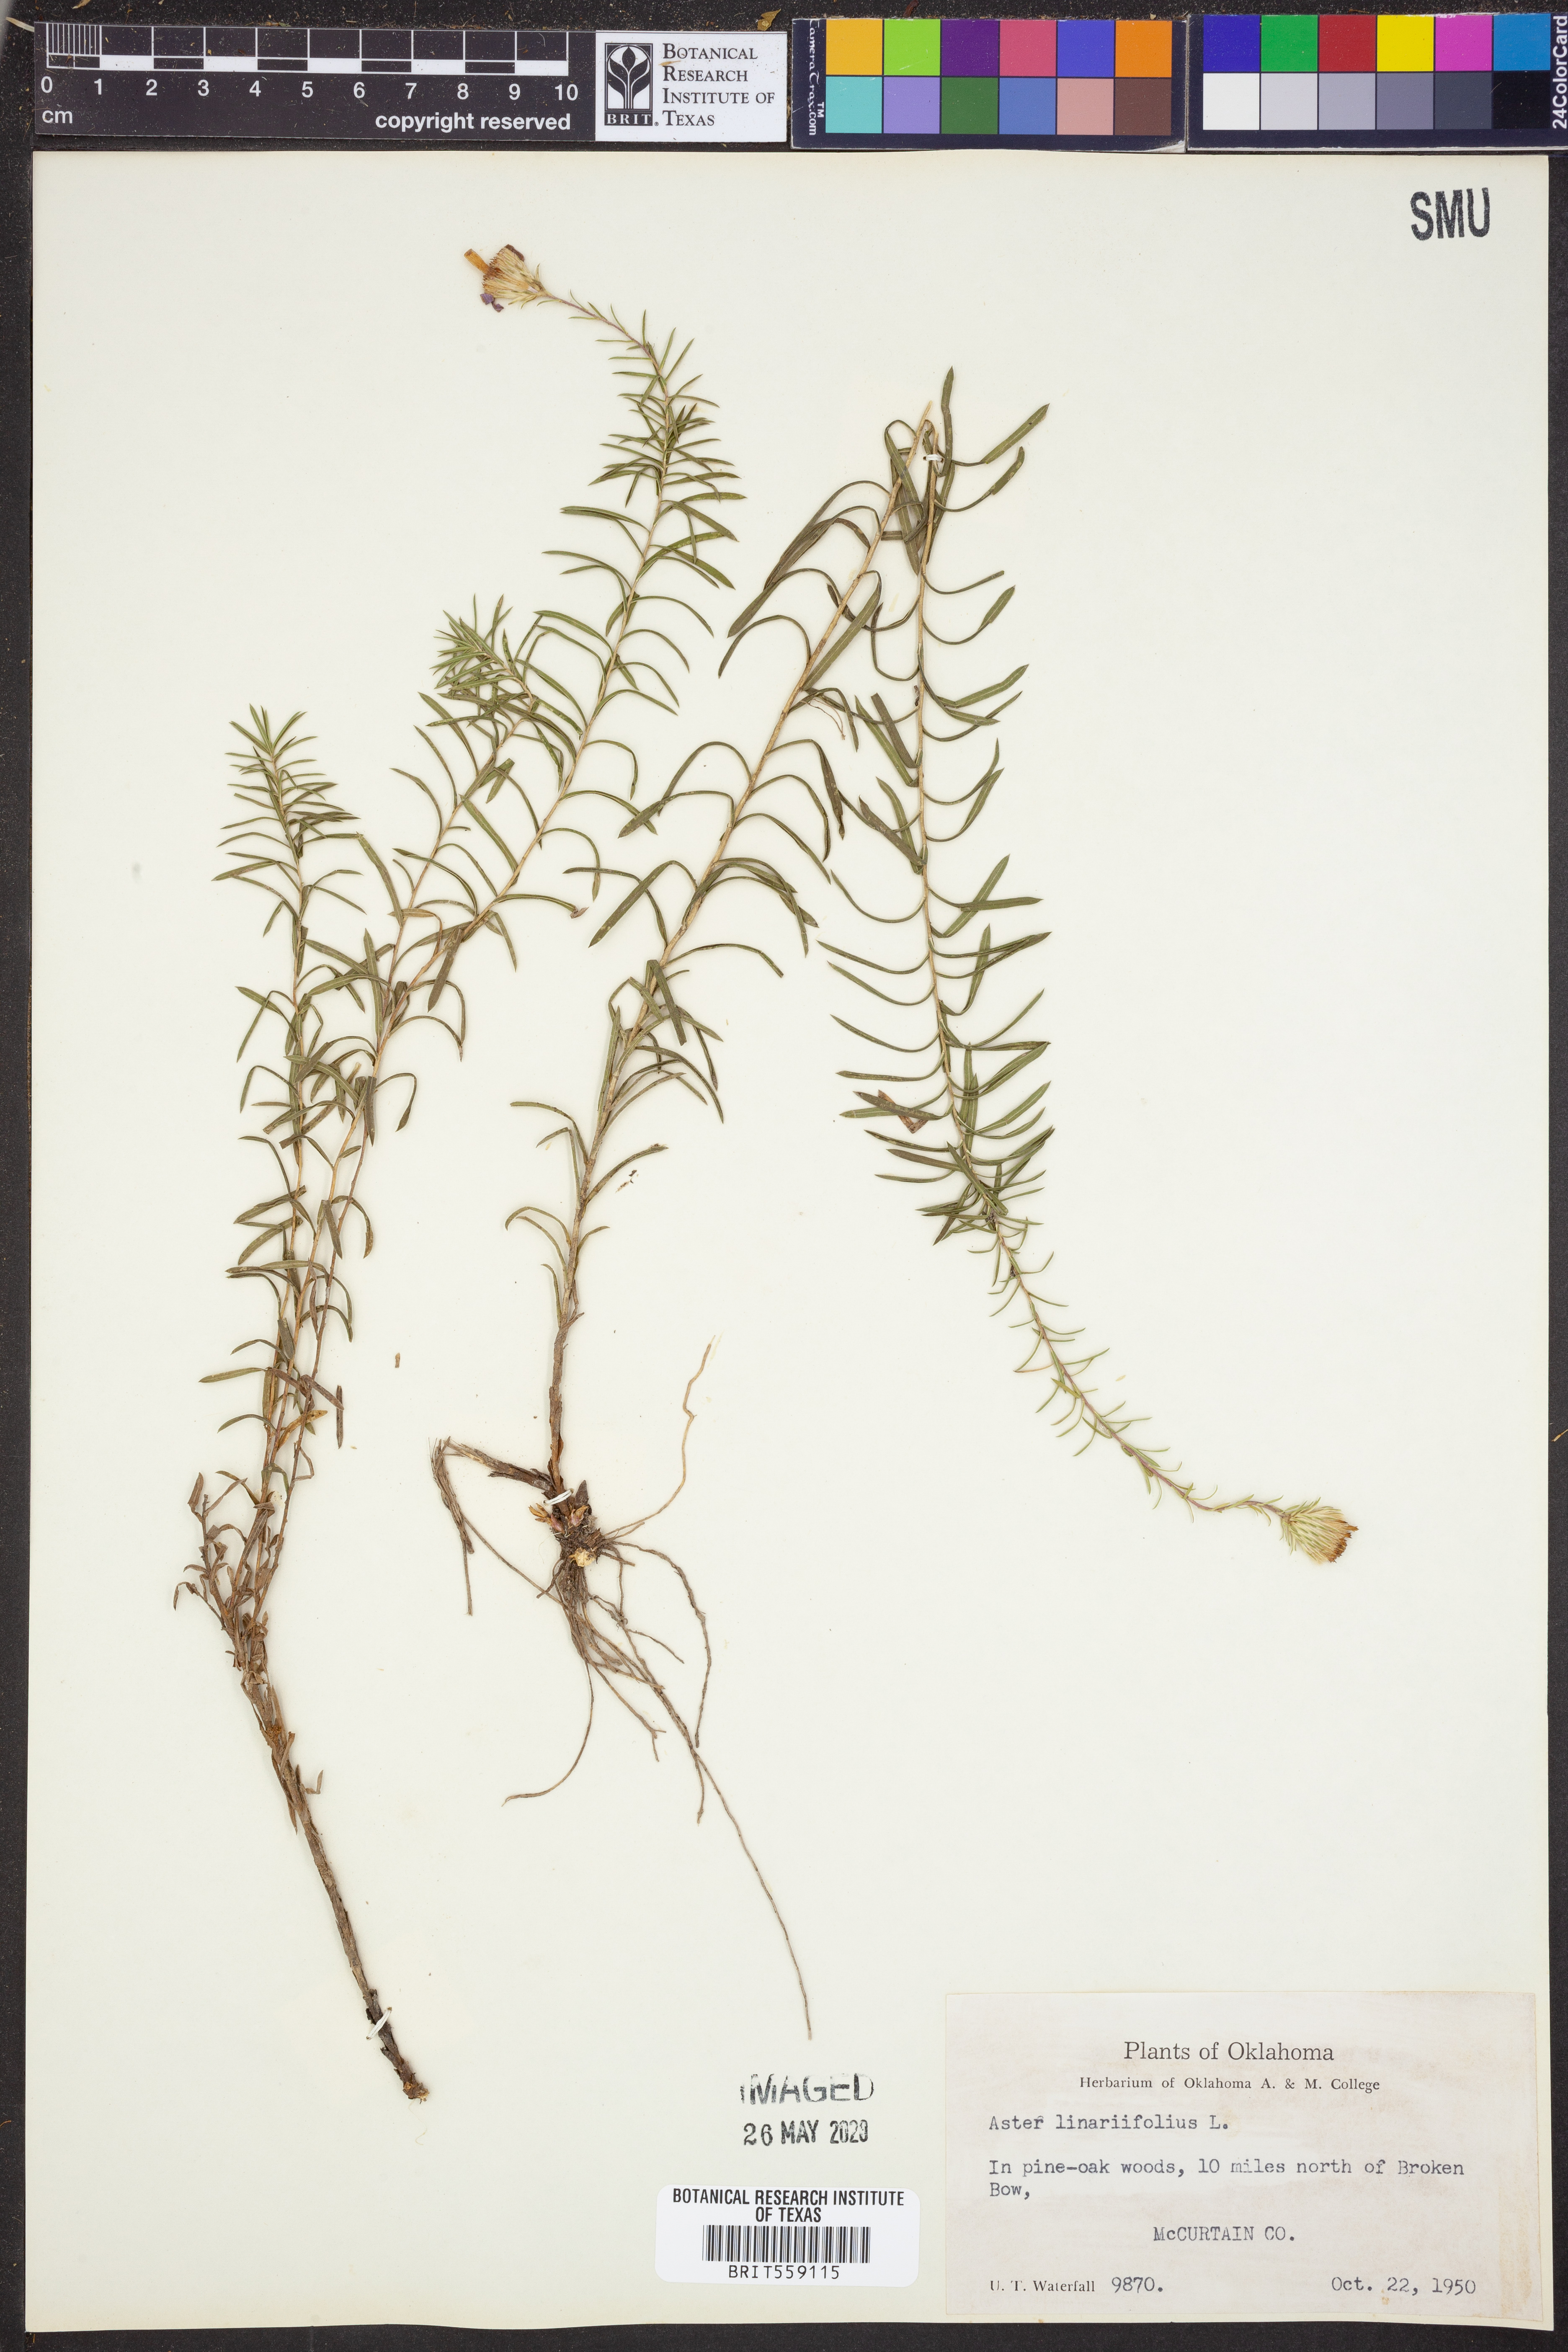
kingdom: Plantae
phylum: Tracheophyta
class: Magnoliopsida
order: Asterales
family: Asteraceae
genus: Ionactis
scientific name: Ionactis linariifolia
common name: Flax-leaf aster
